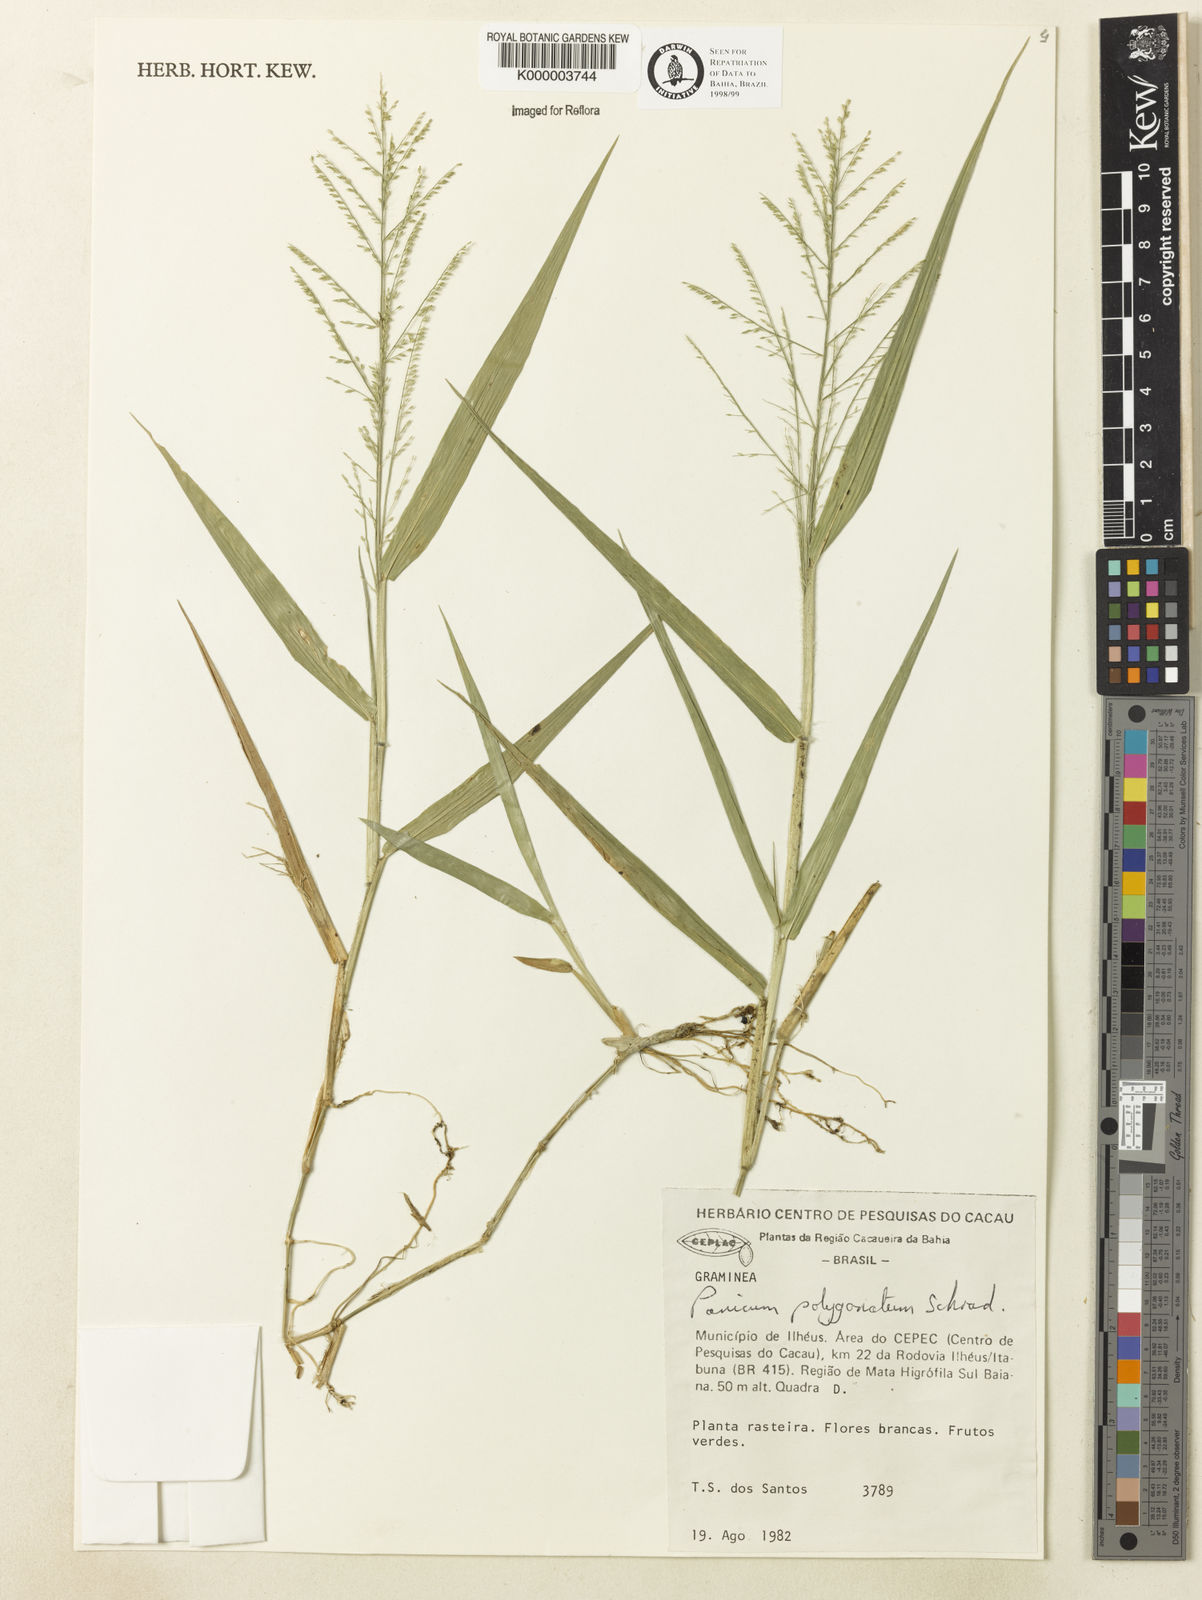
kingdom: Plantae
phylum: Tracheophyta
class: Liliopsida
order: Poales
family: Poaceae
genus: Rugoloa
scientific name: Rugoloa polygonata
